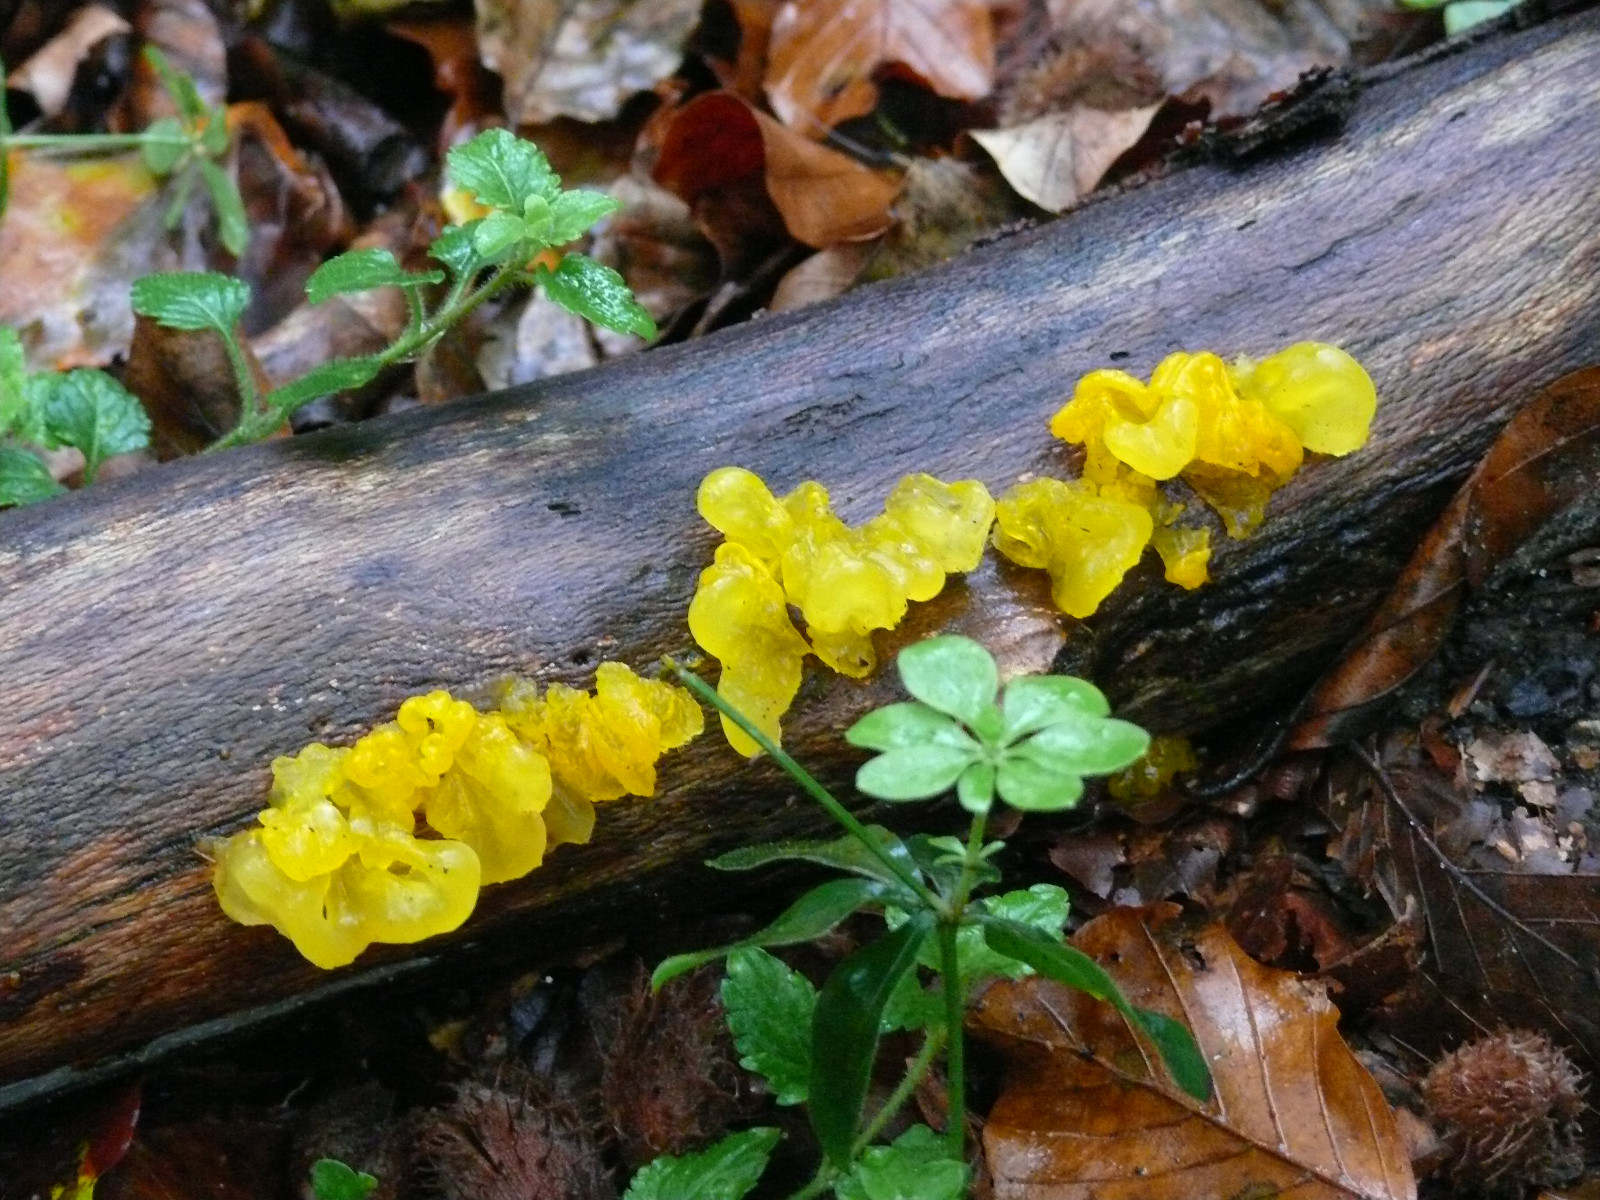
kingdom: Fungi
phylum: Basidiomycota
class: Tremellomycetes
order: Tremellales
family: Tremellaceae
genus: Tremella
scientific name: Tremella mesenterica
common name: gul bævresvamp
